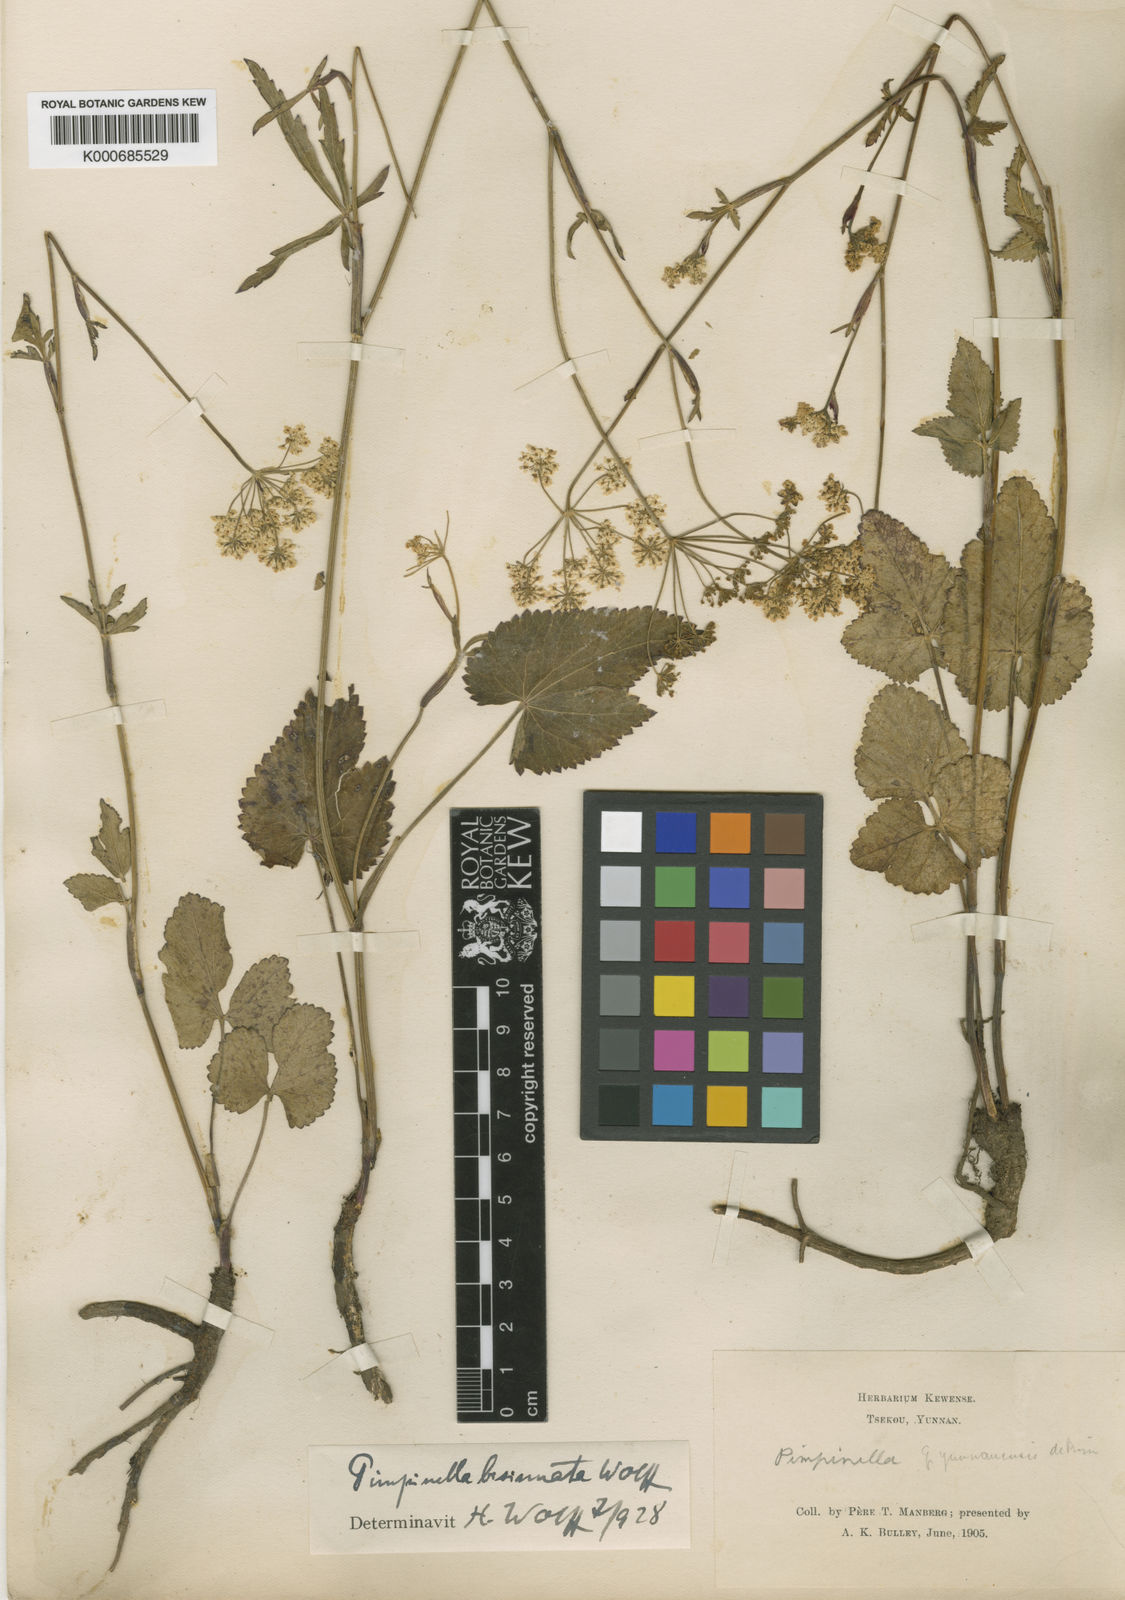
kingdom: Plantae
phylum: Tracheophyta
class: Magnoliopsida
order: Apiales
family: Apiaceae
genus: Pimpinella
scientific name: Pimpinella bisinuata
